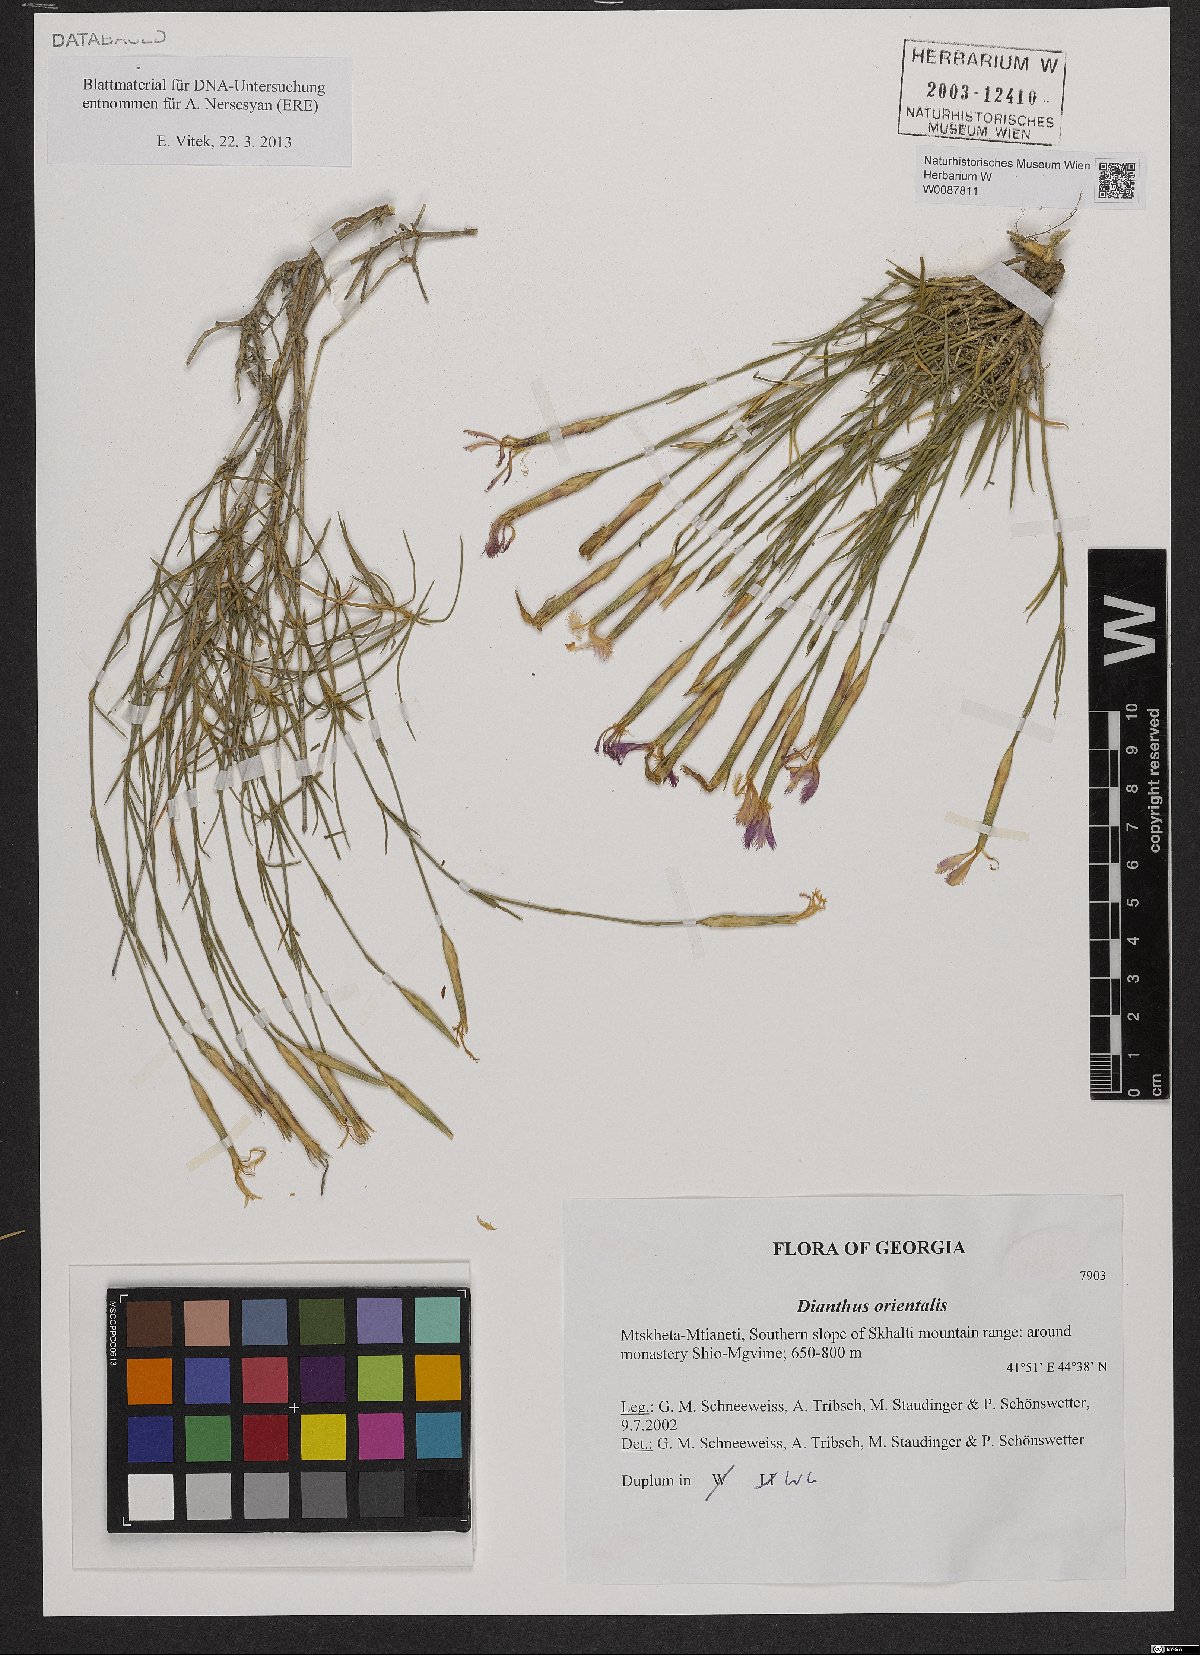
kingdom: Plantae
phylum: Tracheophyta
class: Magnoliopsida
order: Caryophyllales
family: Caryophyllaceae
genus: Dianthus
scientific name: Dianthus orientalis
